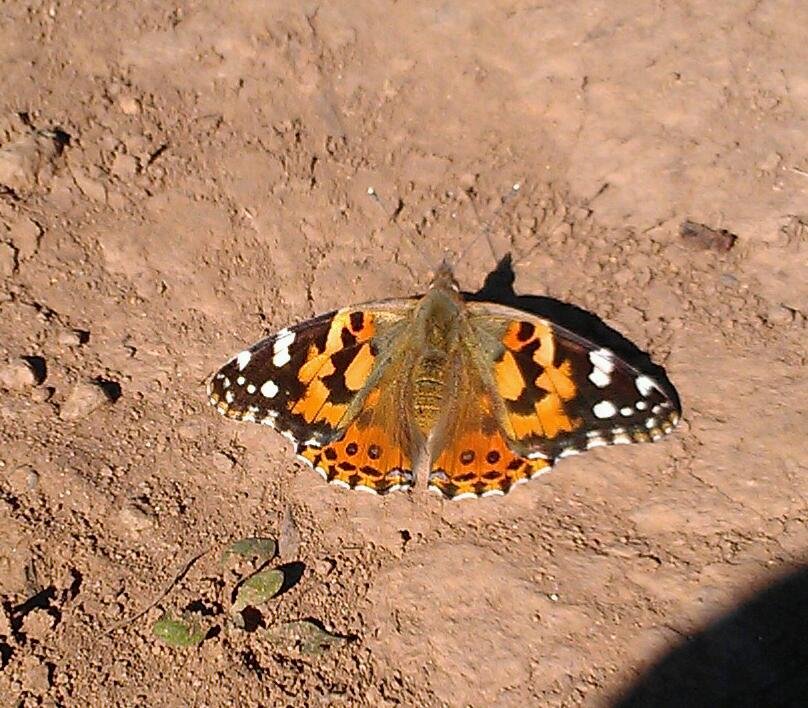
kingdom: Animalia
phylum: Arthropoda
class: Insecta
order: Lepidoptera
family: Nymphalidae
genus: Vanessa
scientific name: Vanessa cardui
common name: Painted Lady
